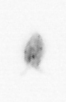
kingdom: Animalia
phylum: Arthropoda
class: Copepoda
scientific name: Copepoda
